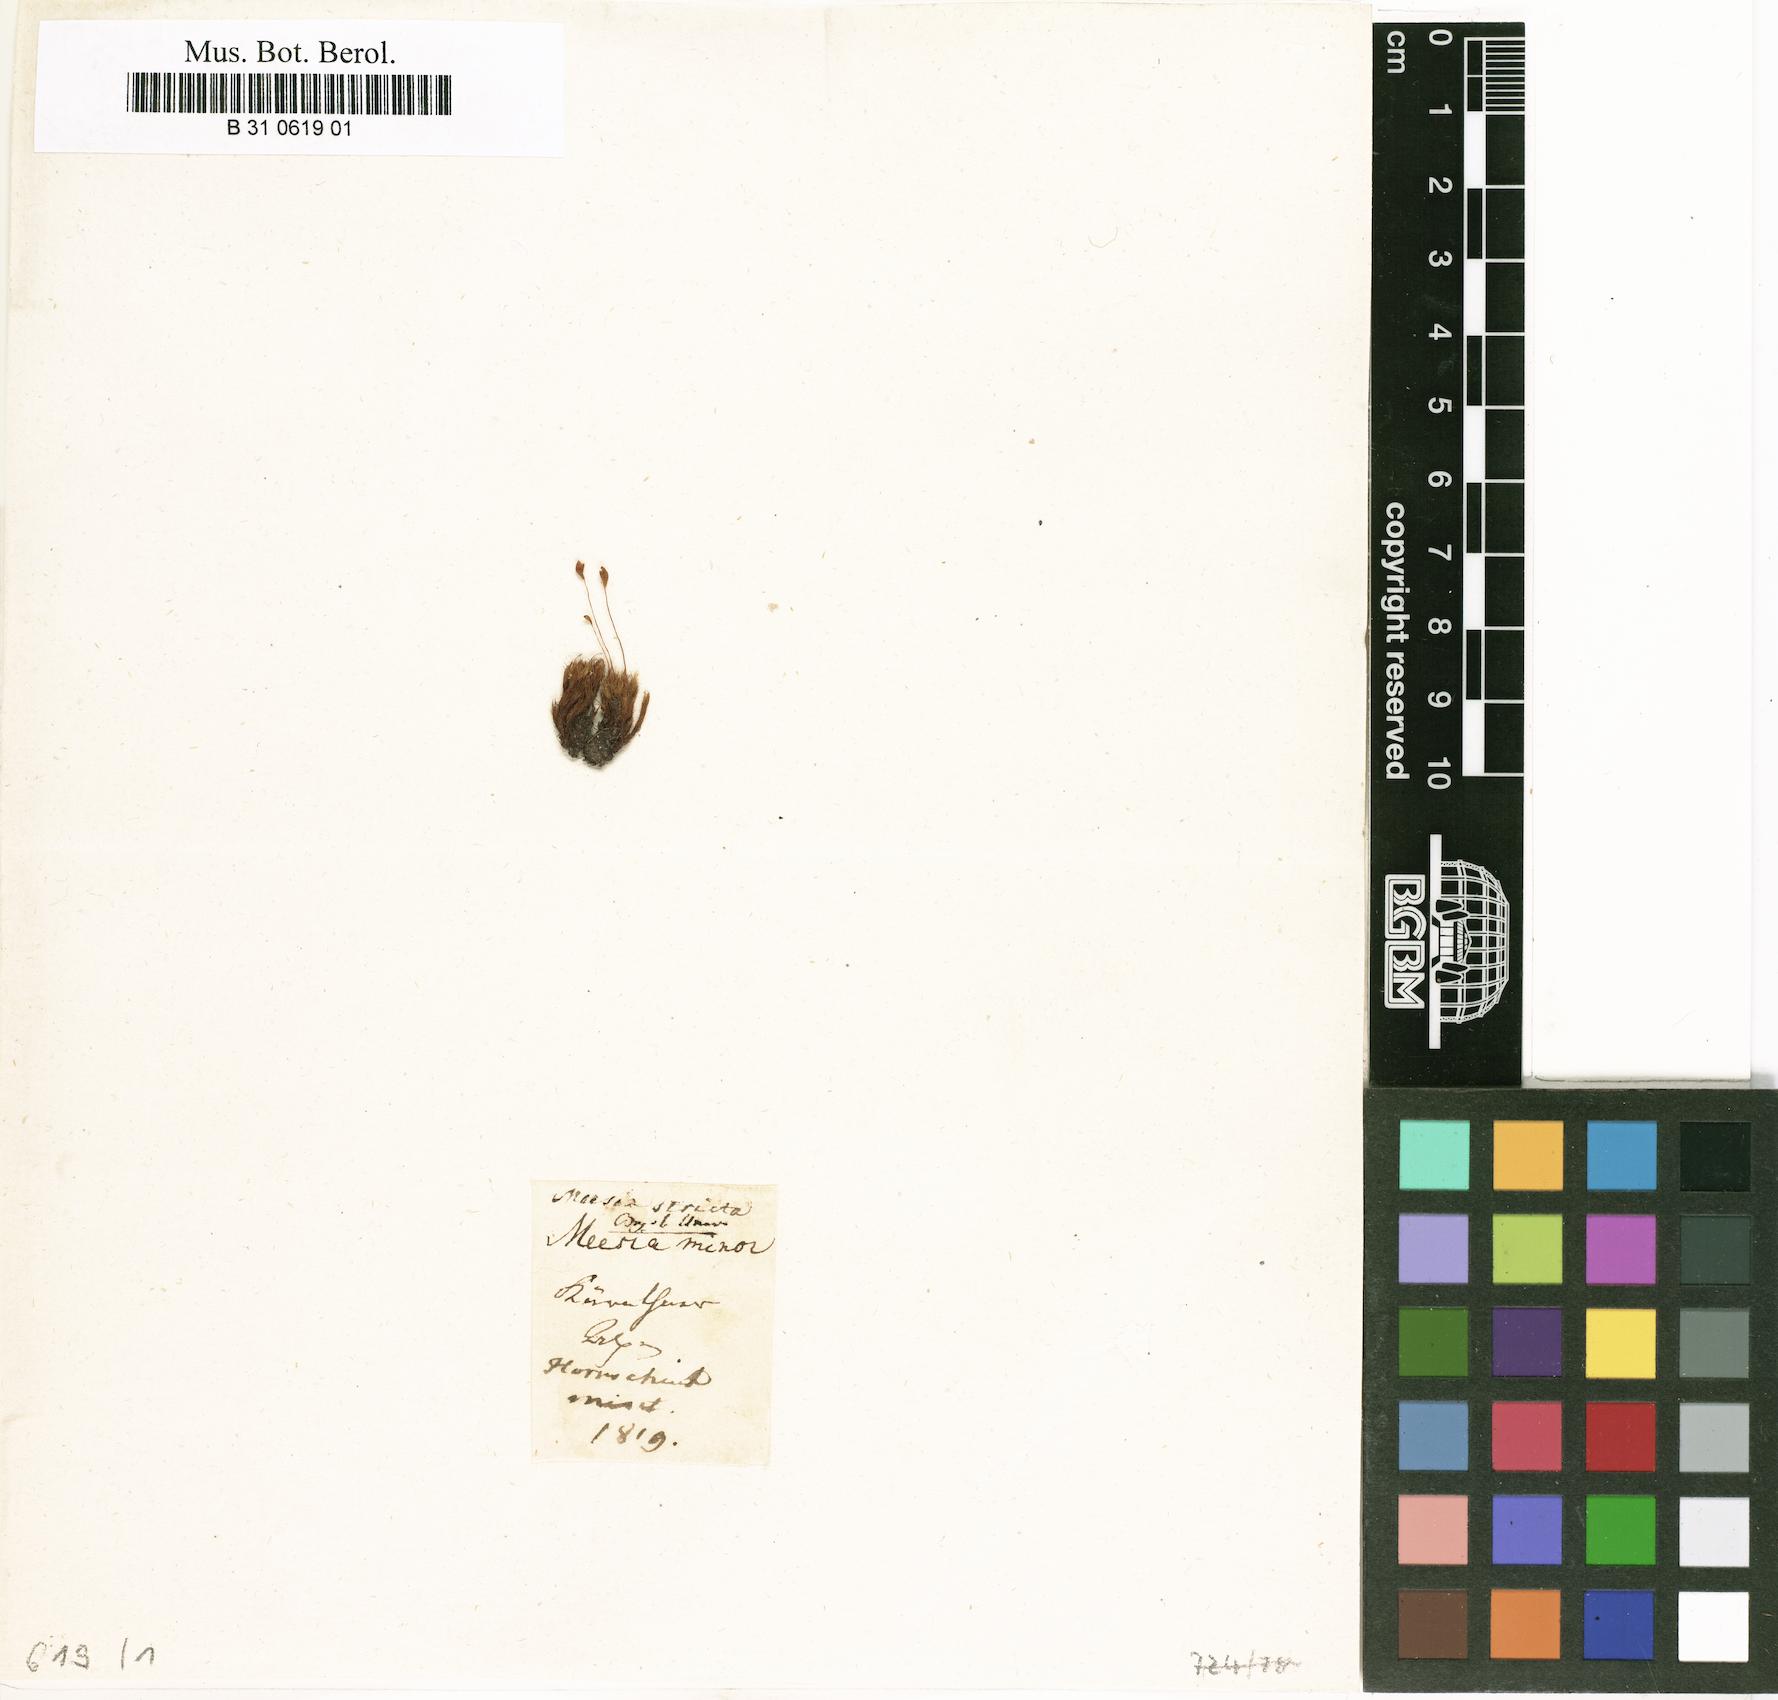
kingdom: Plantae
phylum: Bryophyta
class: Bryopsida
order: Splachnales
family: Meesiaceae
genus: Meesia
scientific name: Meesia minor
